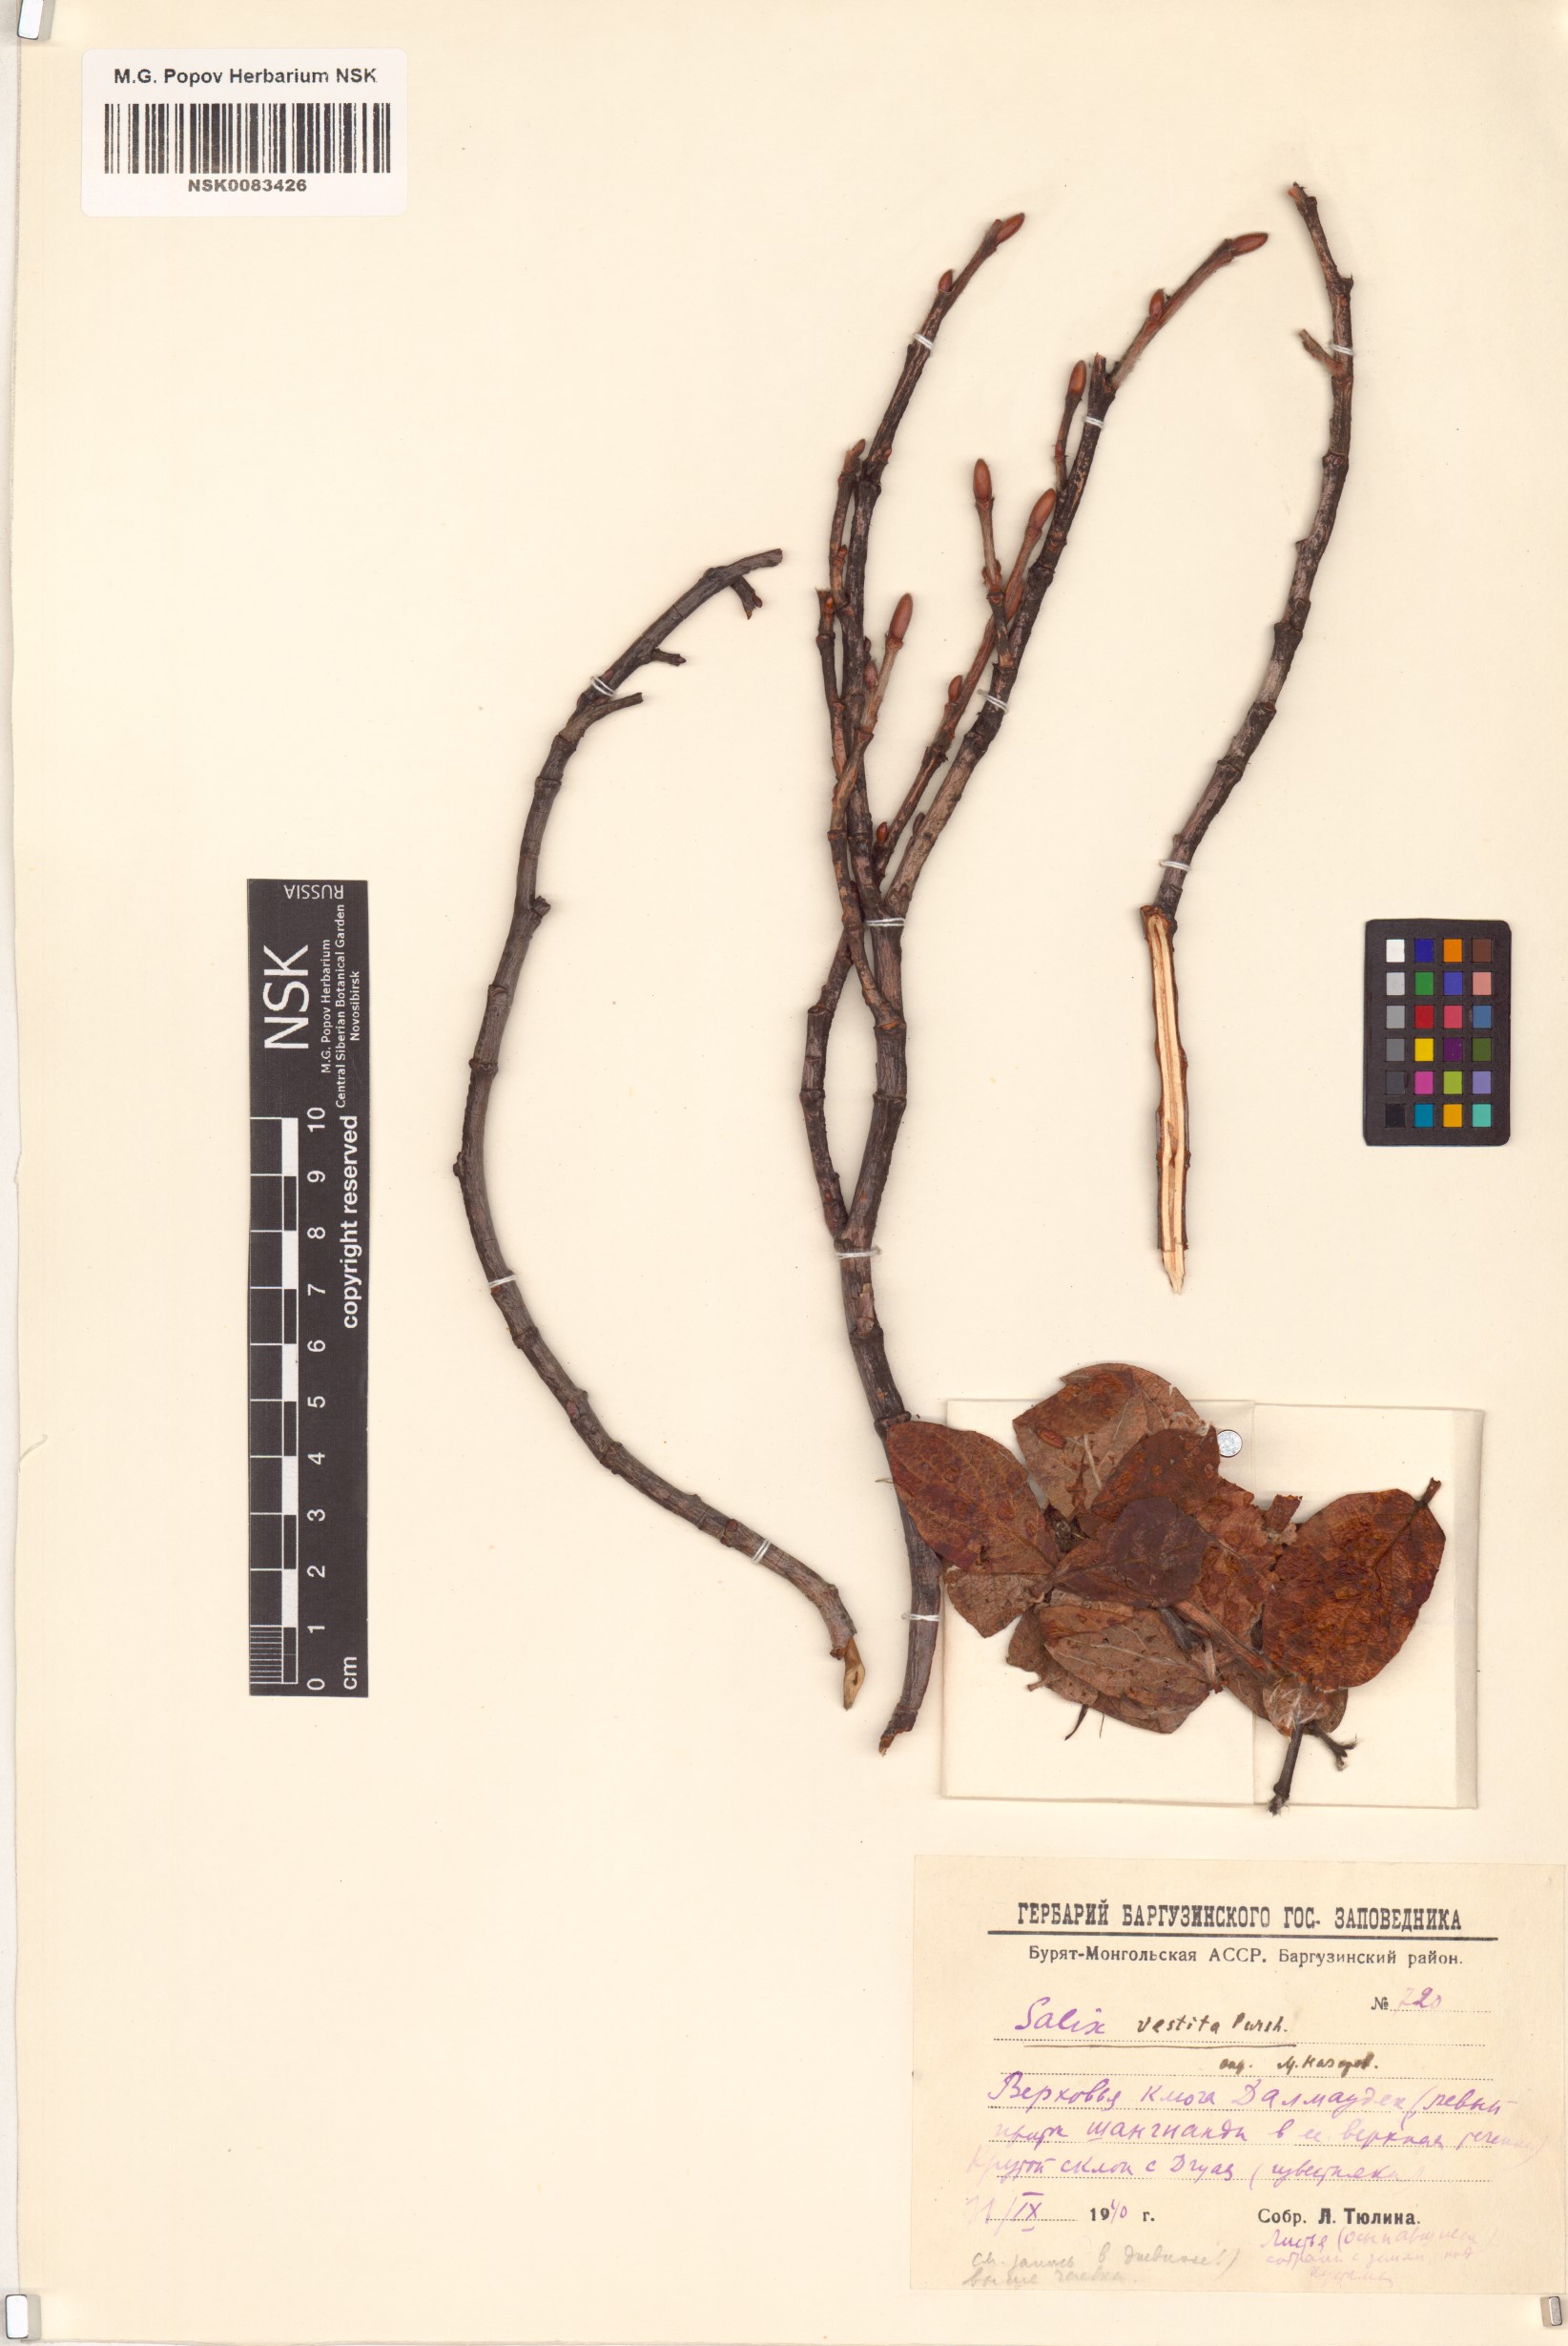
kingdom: Plantae
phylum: Tracheophyta
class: Magnoliopsida
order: Malpighiales
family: Salicaceae
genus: Salix
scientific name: Salix vestita
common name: Hairy willow
